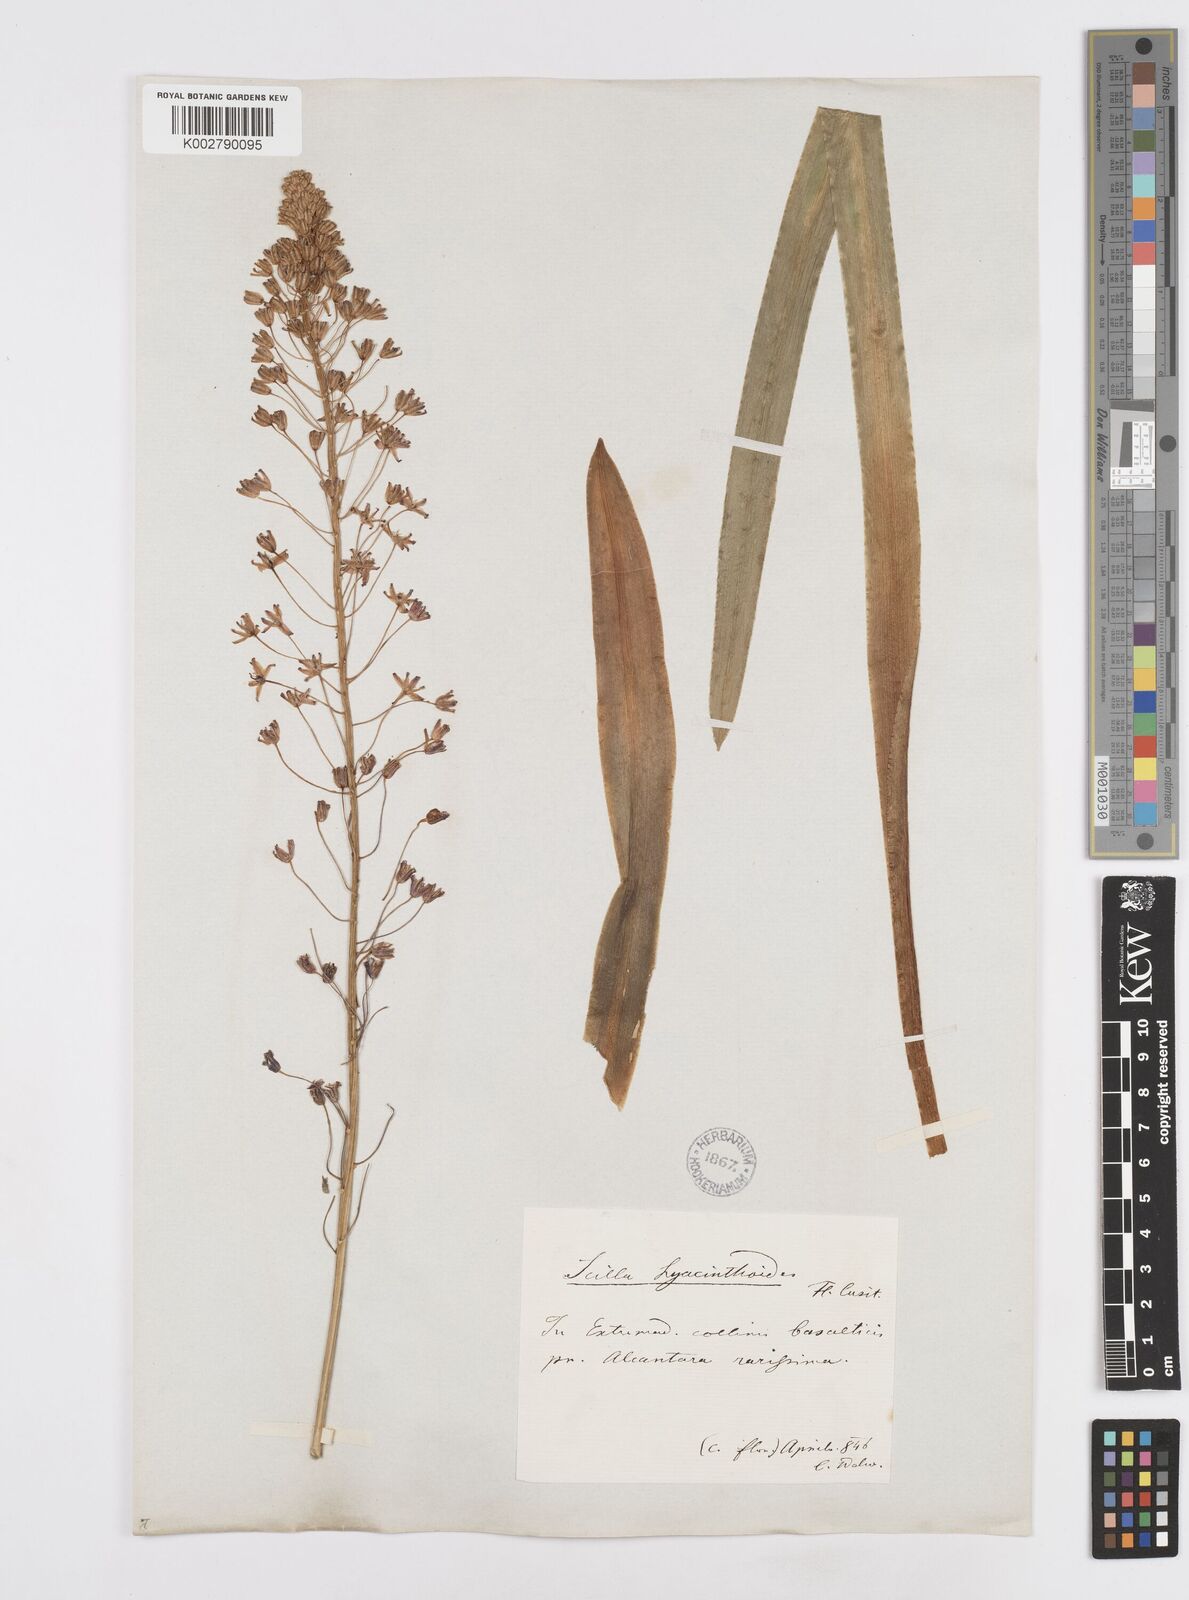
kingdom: Plantae
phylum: Tracheophyta
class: Liliopsida
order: Asparagales
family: Asparagaceae
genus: Scilla
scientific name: Scilla hyacinthoides
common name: Scilla
